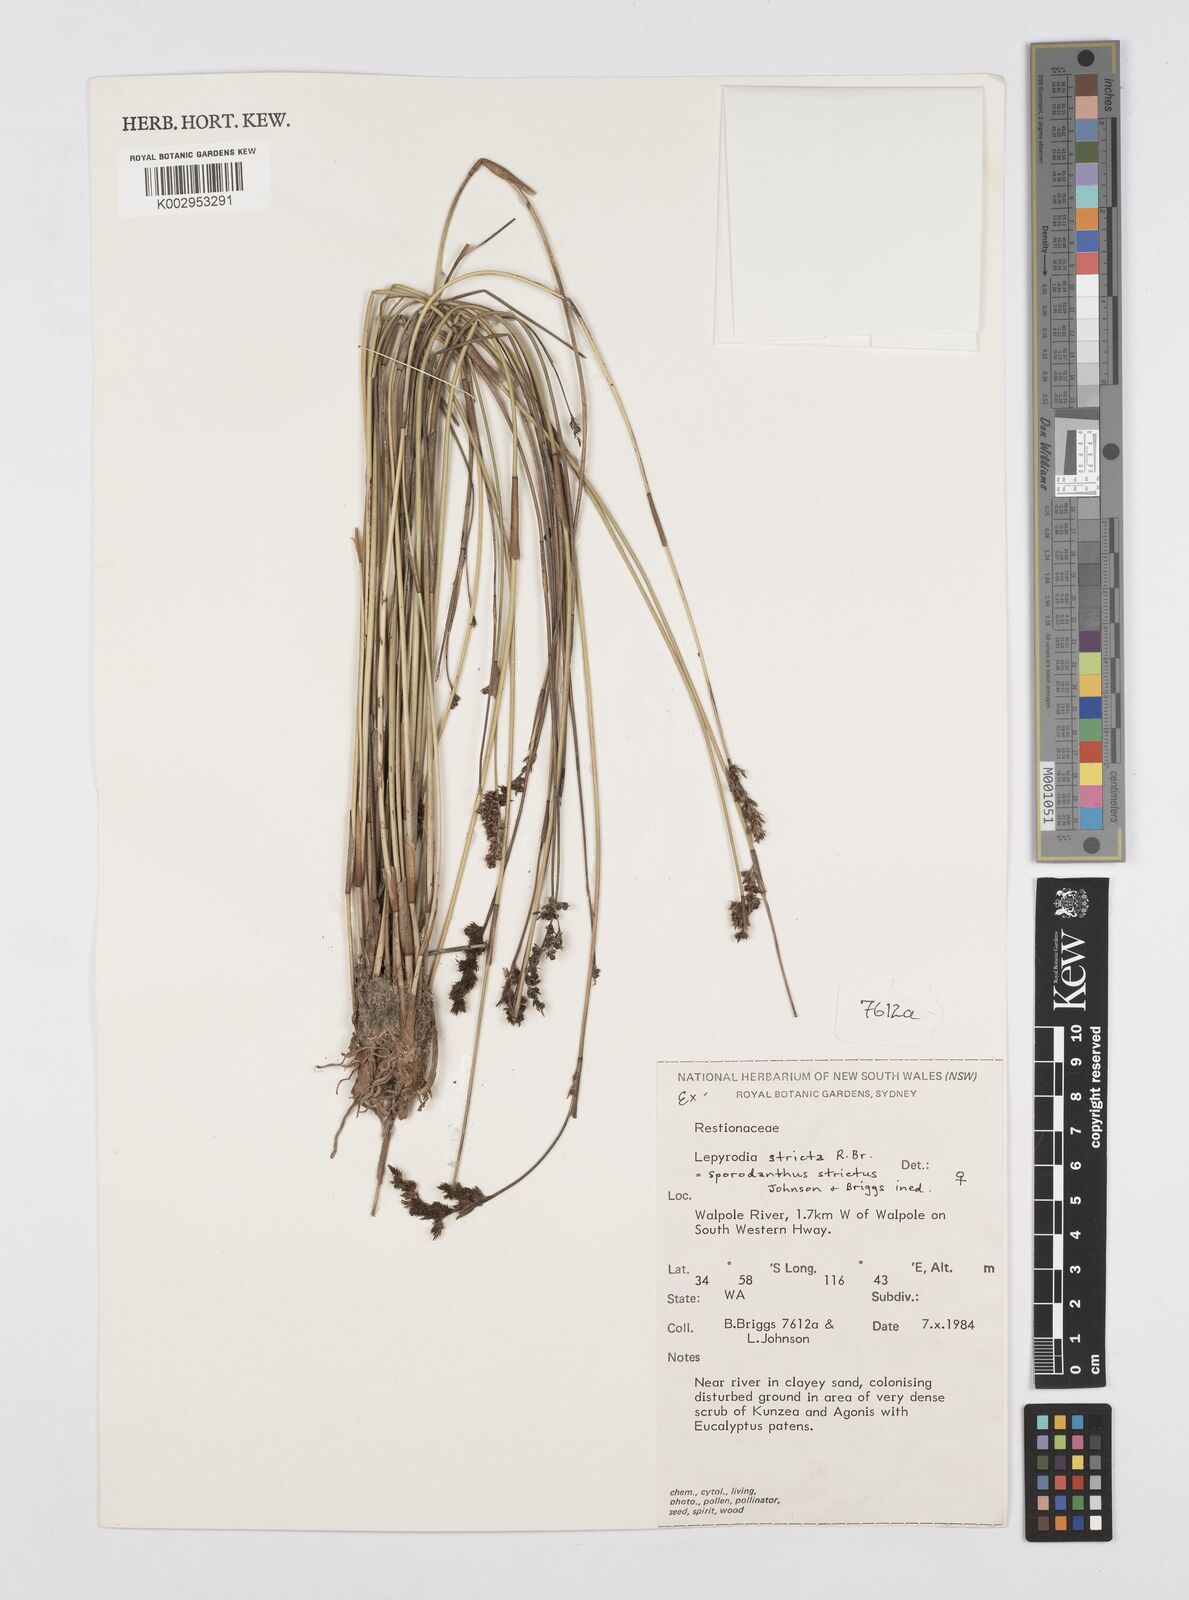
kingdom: Plantae
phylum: Tracheophyta
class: Liliopsida
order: Poales
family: Restionaceae
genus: Sporadanthus
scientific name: Sporadanthus strictus
